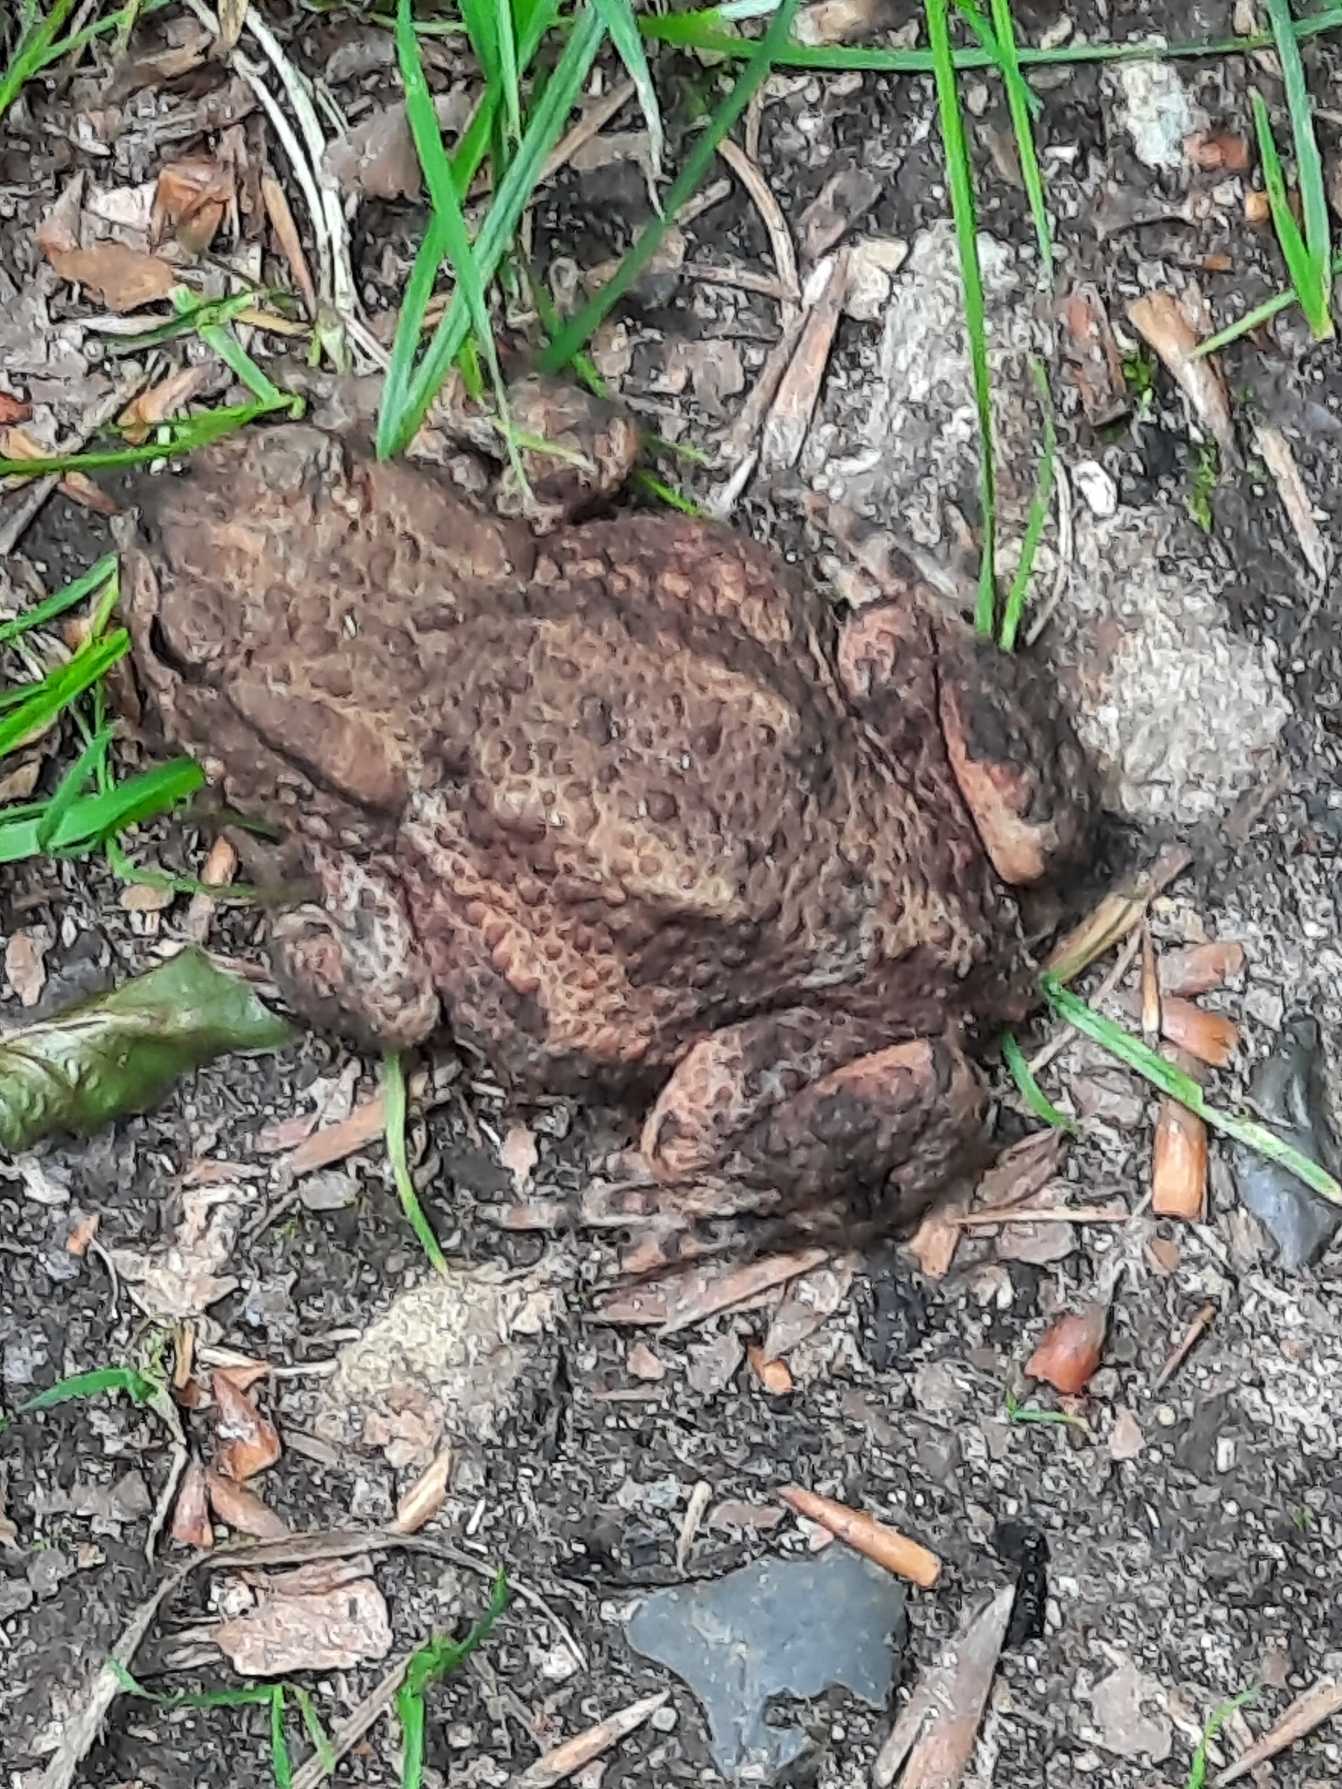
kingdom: Animalia
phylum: Chordata
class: Amphibia
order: Anura
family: Bufonidae
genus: Bufo
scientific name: Bufo bufo
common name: Skrubtudse
